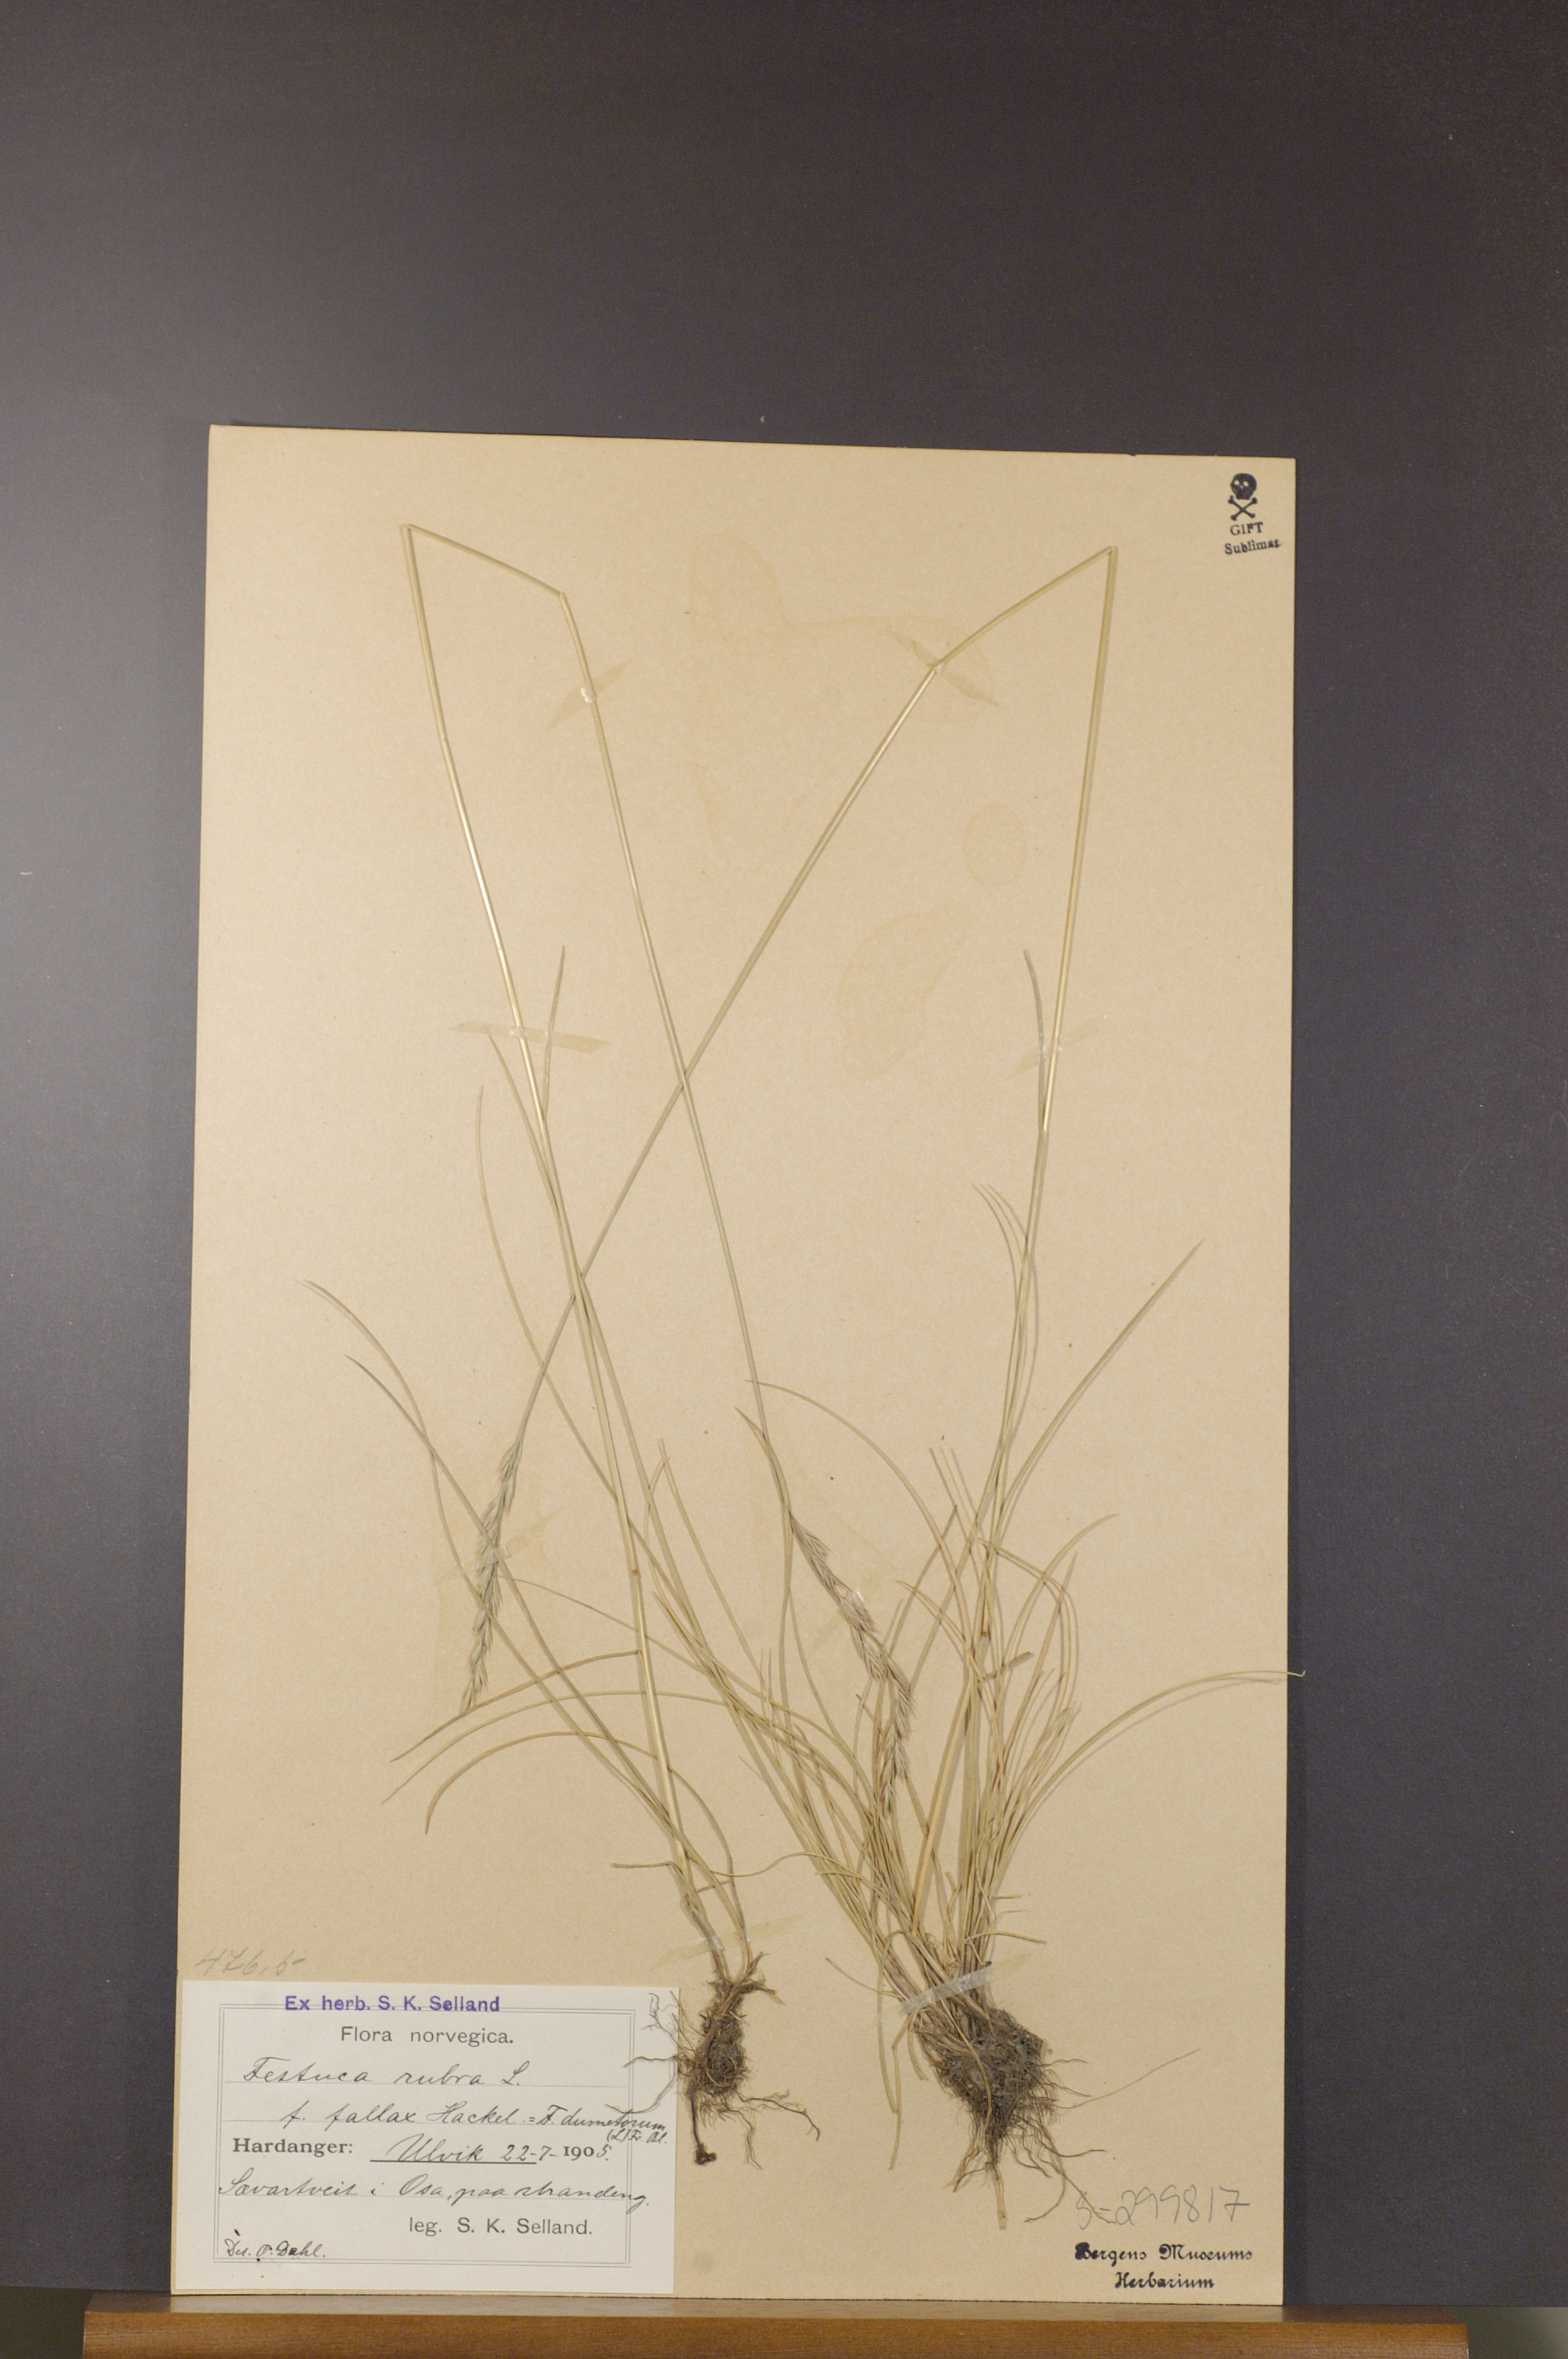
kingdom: Plantae
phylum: Tracheophyta
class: Liliopsida
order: Poales
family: Poaceae
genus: Festuca
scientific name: Festuca rubra
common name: Red fescue
